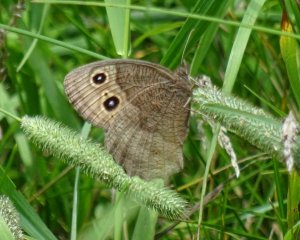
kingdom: Animalia
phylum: Arthropoda
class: Insecta
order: Lepidoptera
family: Nymphalidae
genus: Cercyonis
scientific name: Cercyonis pegala
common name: Common Wood-Nymph
